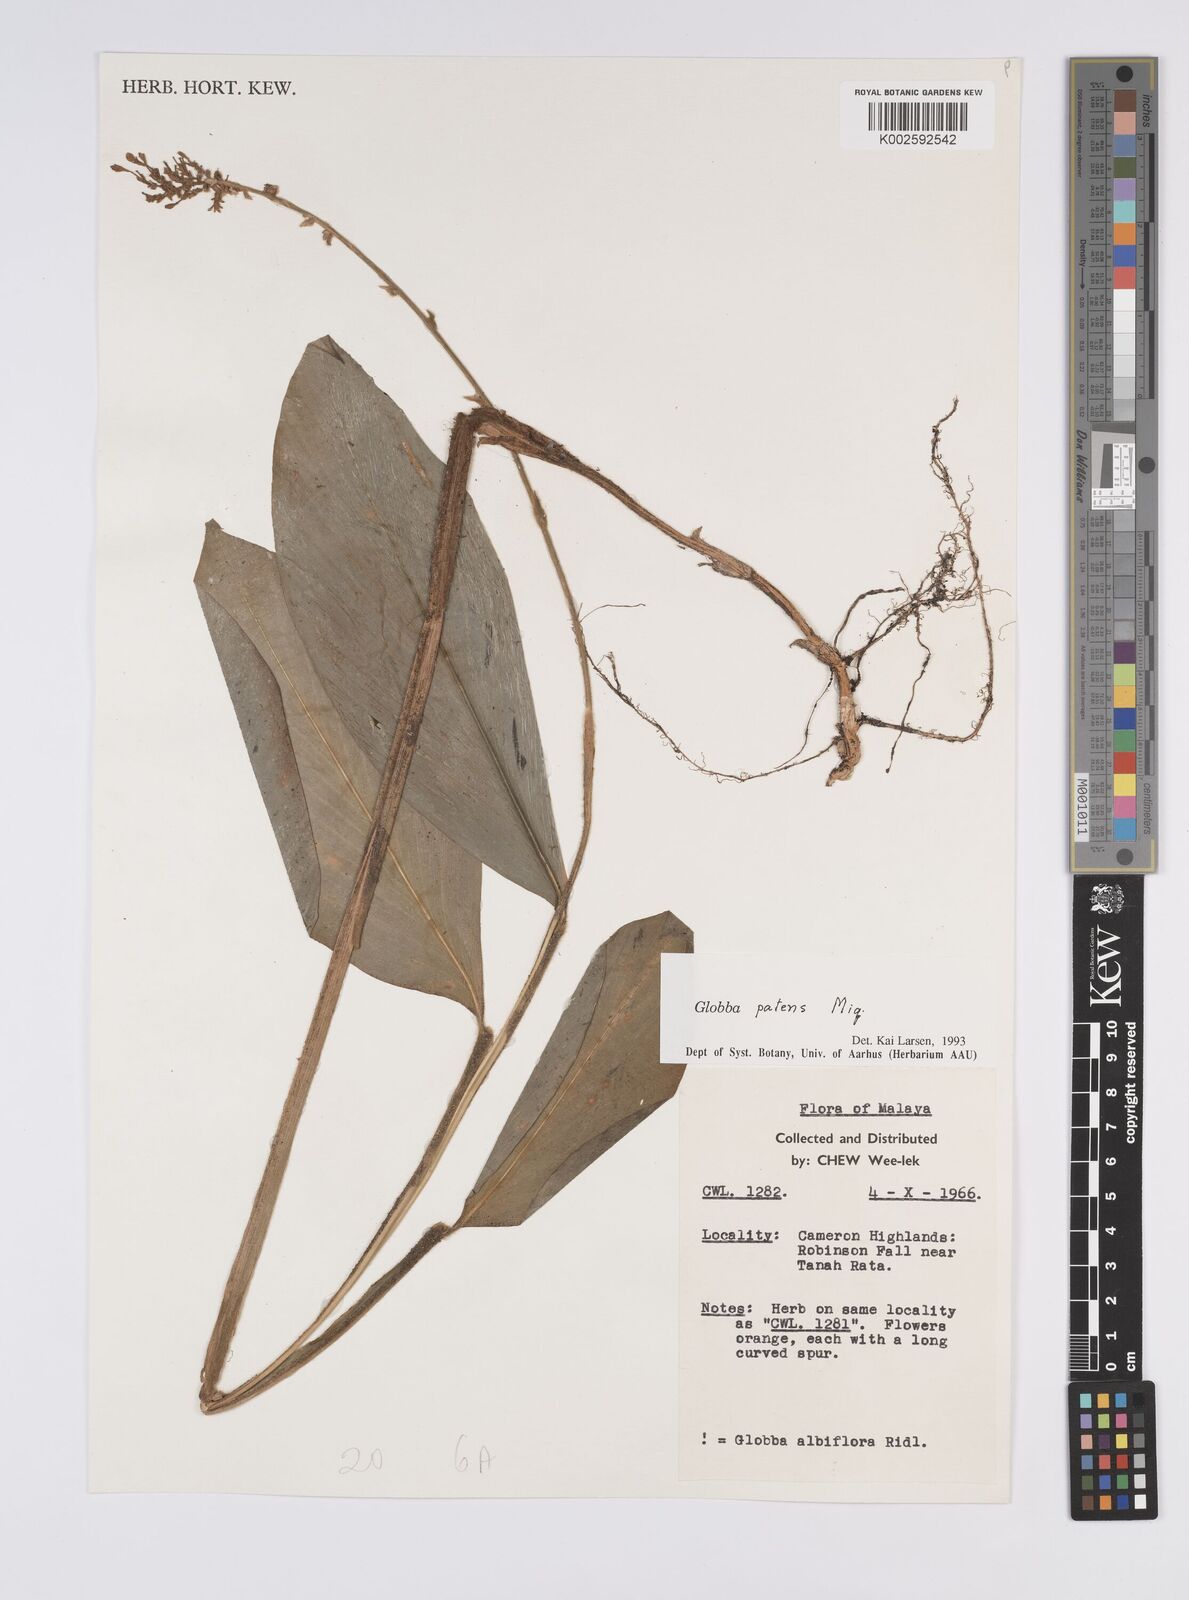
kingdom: Plantae
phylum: Tracheophyta
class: Liliopsida
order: Zingiberales
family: Zingiberaceae
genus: Globba
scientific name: Globba patens
